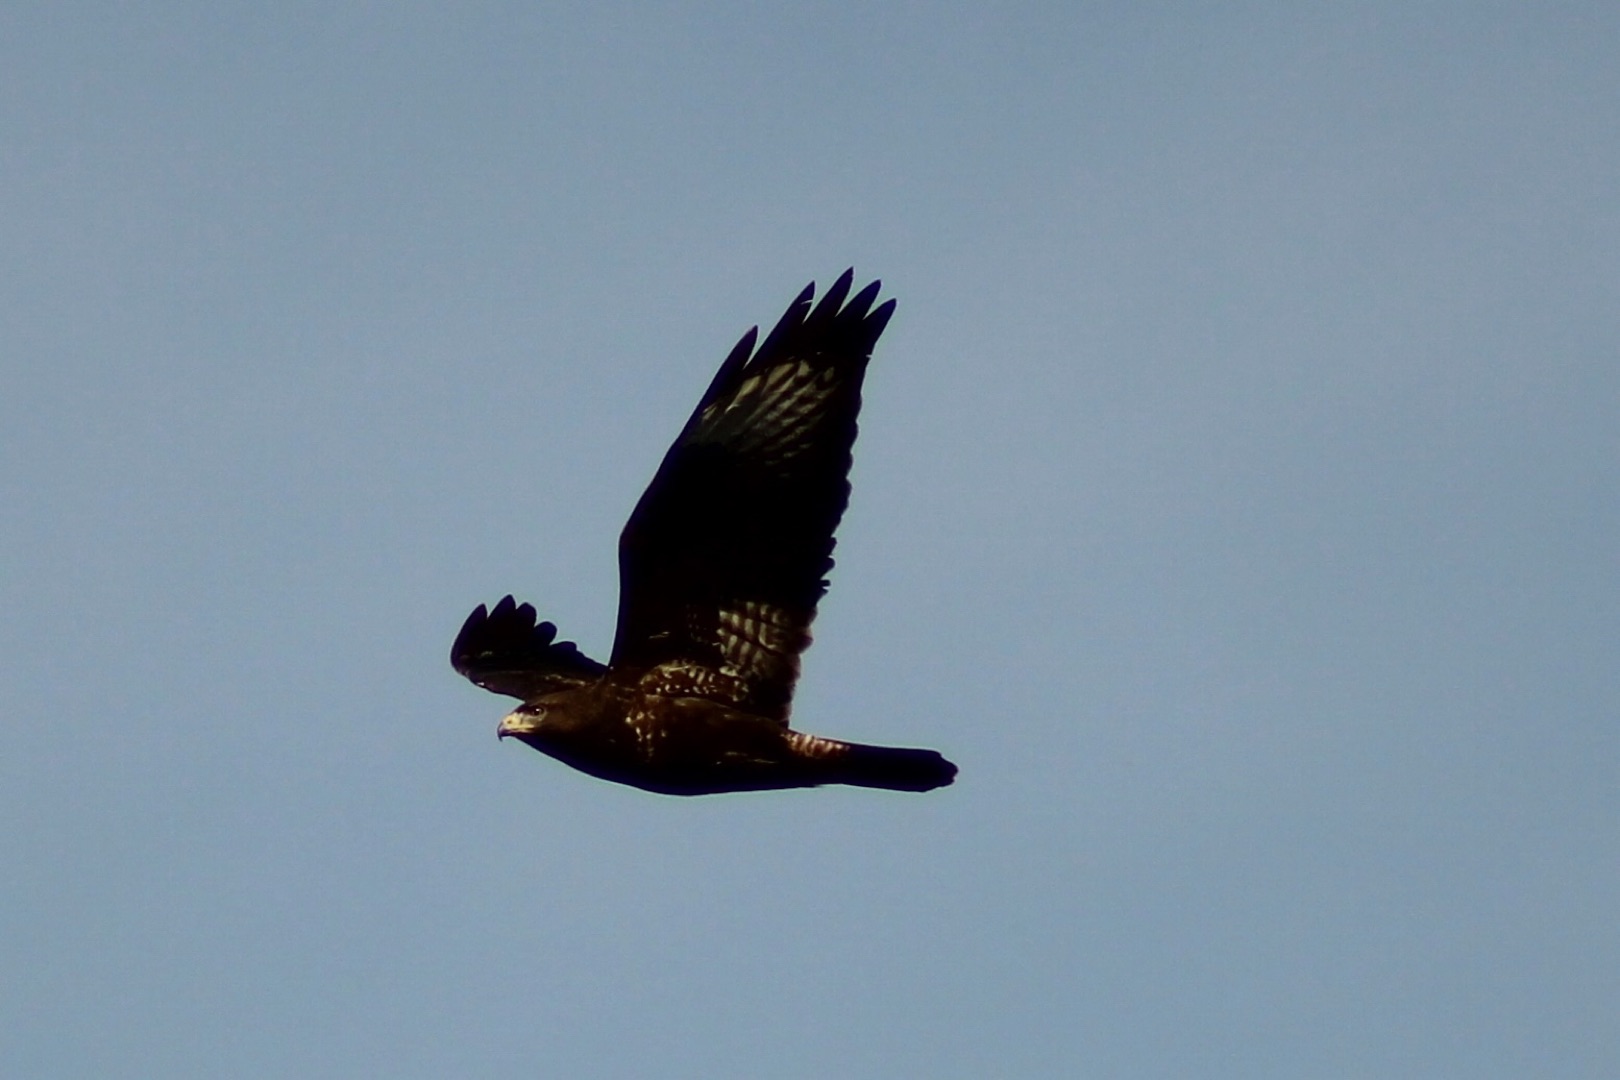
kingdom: Animalia
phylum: Chordata
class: Aves
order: Accipitriformes
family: Accipitridae
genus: Buteo
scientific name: Buteo buteo
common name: Musvåge
